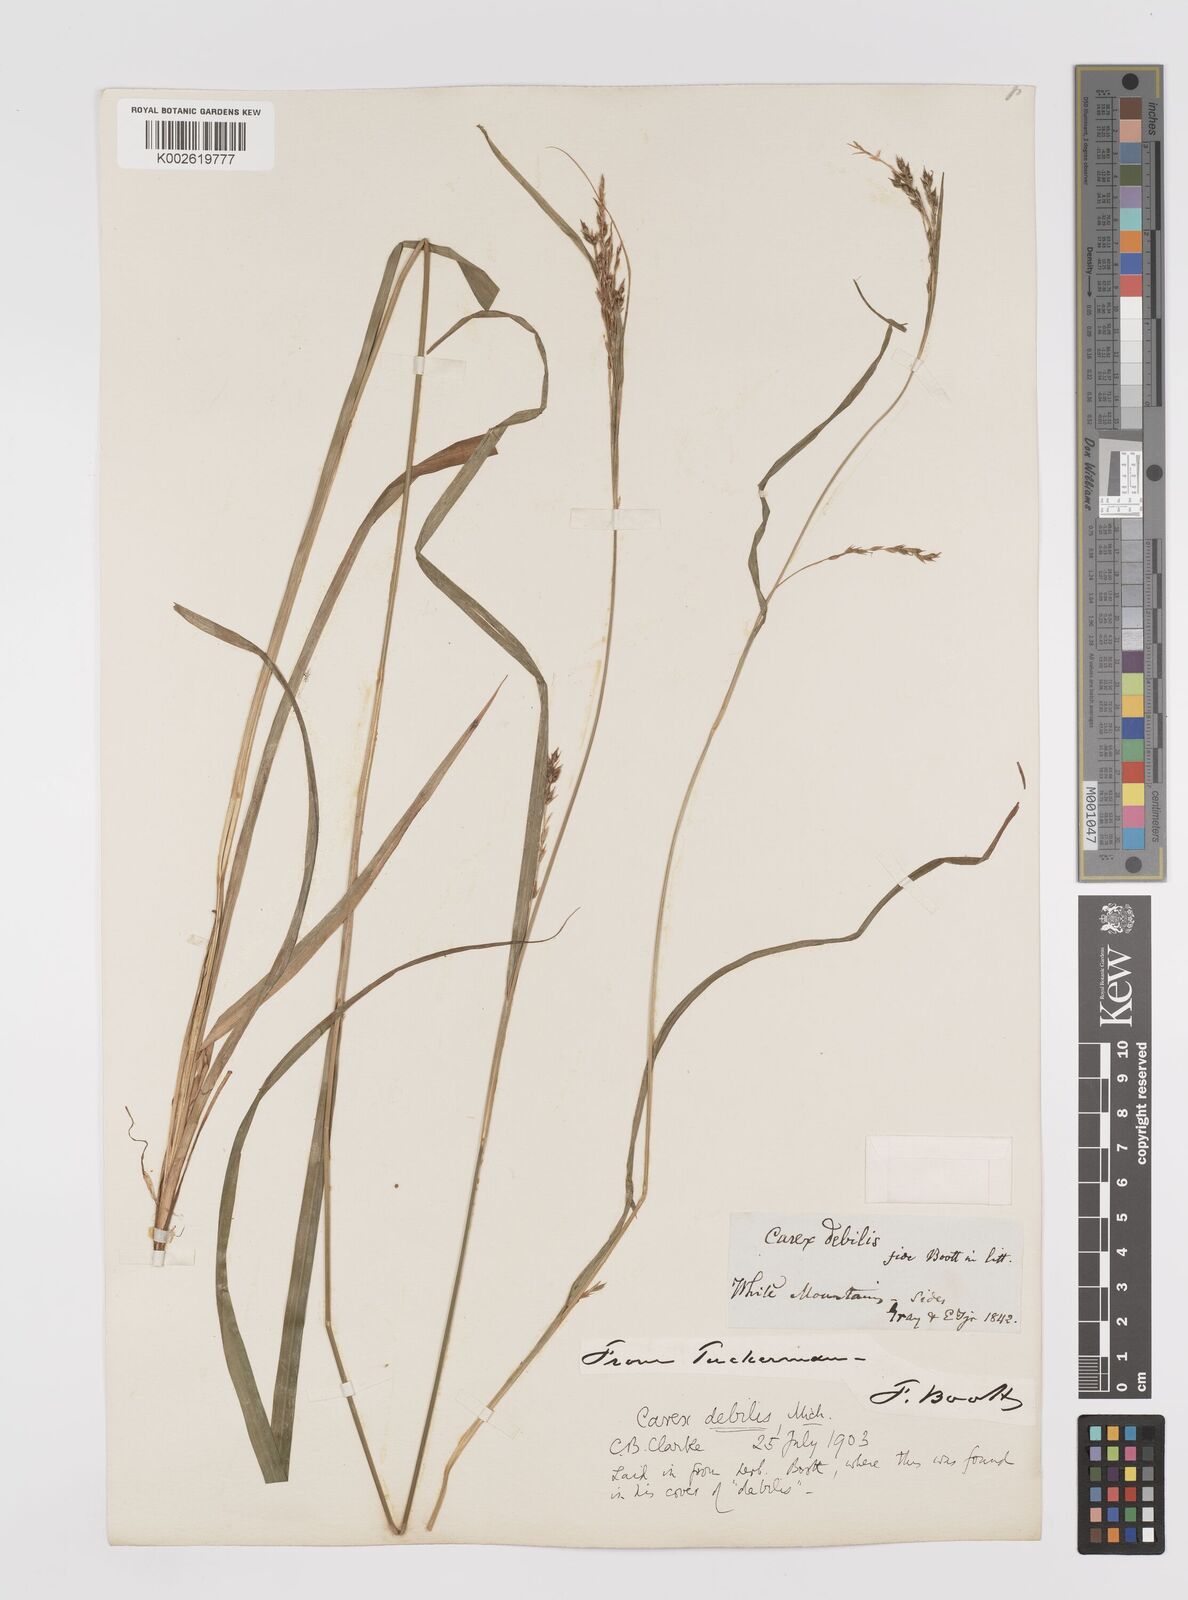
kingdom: Plantae
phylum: Tracheophyta
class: Liliopsida
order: Poales
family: Cyperaceae
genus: Carex
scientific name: Carex debilis
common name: White-edge sedge
